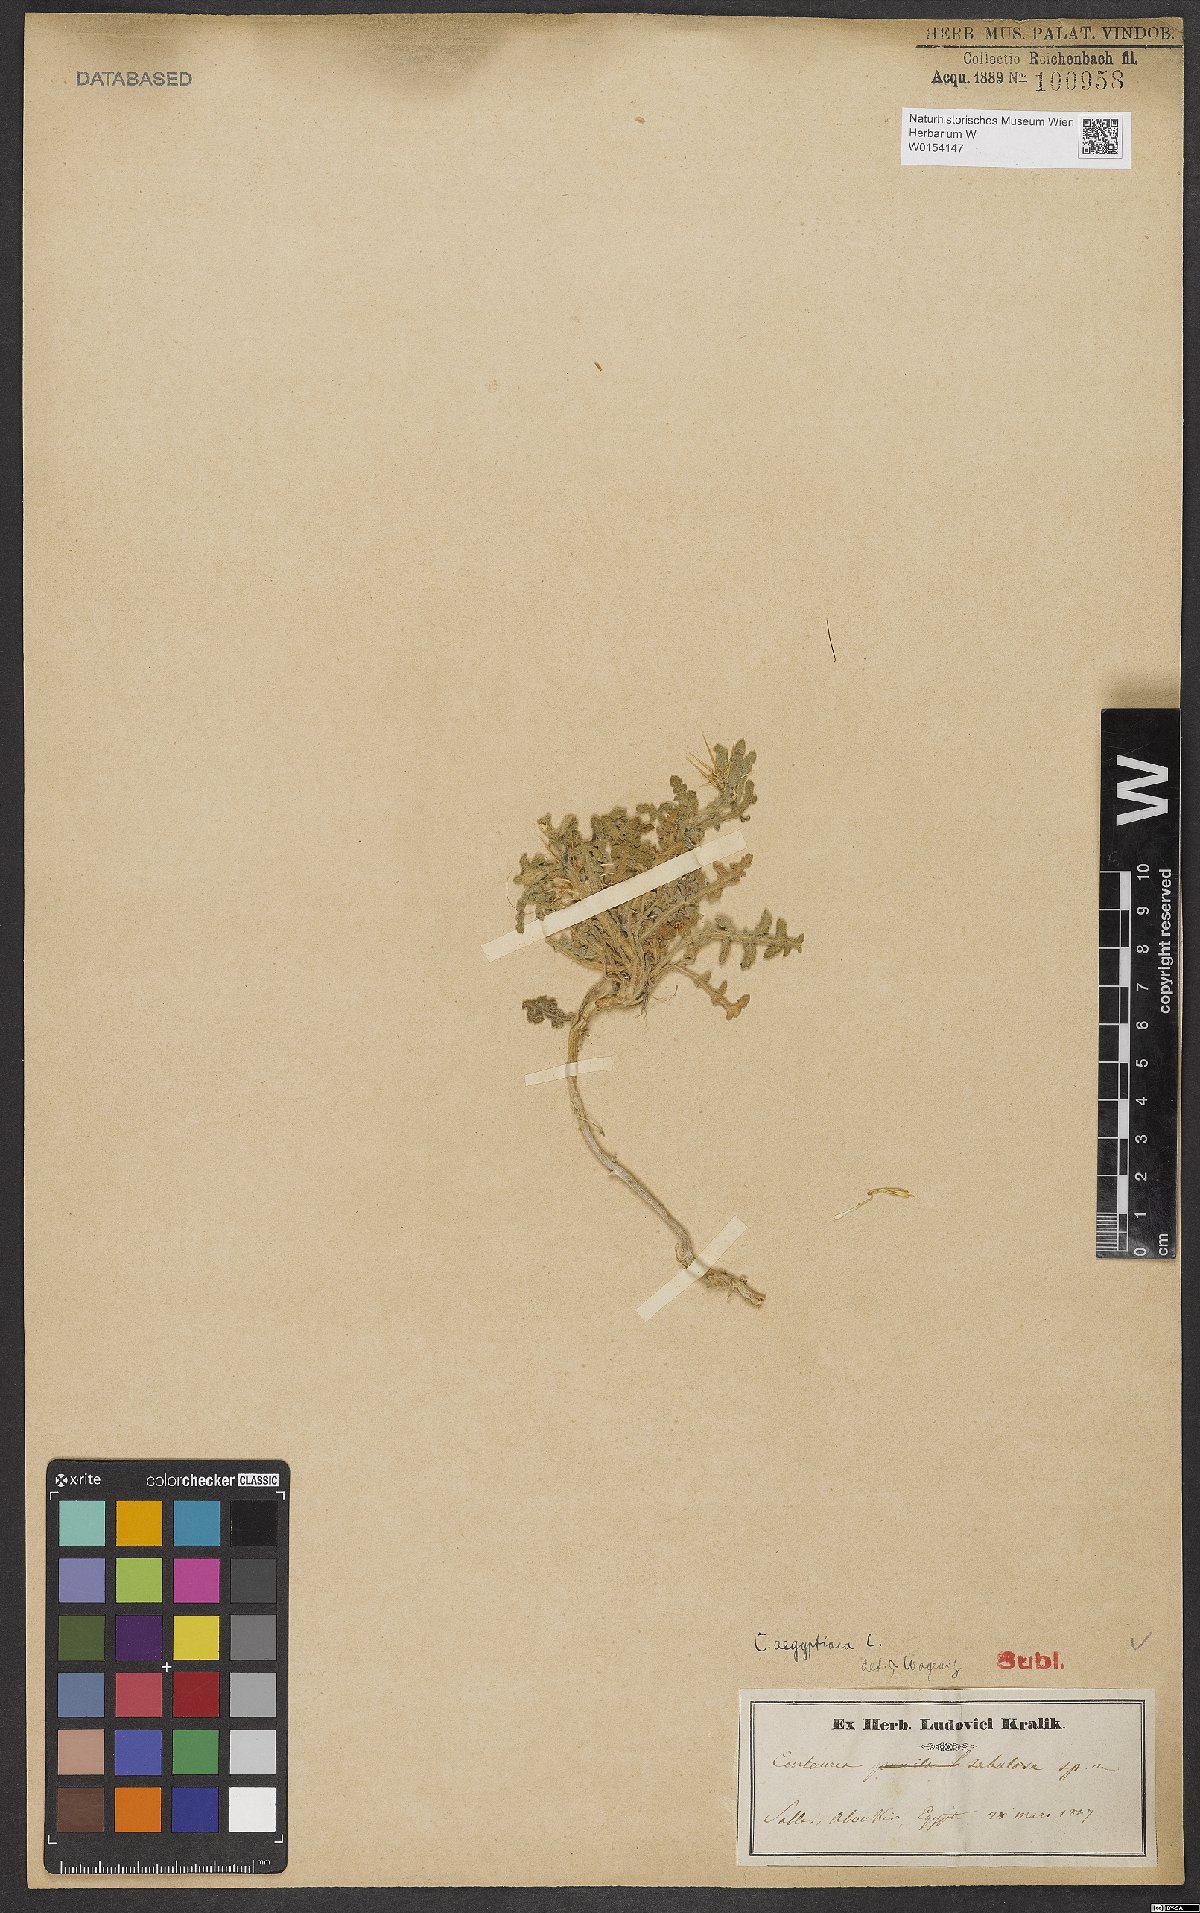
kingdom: Plantae
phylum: Tracheophyta
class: Magnoliopsida
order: Asterales
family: Asteraceae
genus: Centaurea
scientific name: Centaurea aegyptiaca
